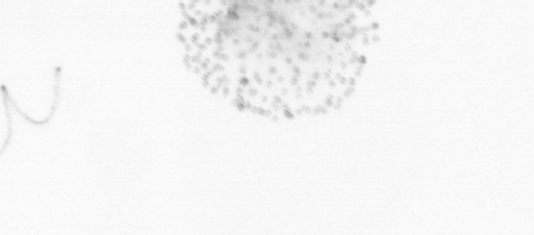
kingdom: Chromista
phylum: Ochrophyta
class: Bacillariophyceae
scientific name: Bacillariophyceae
